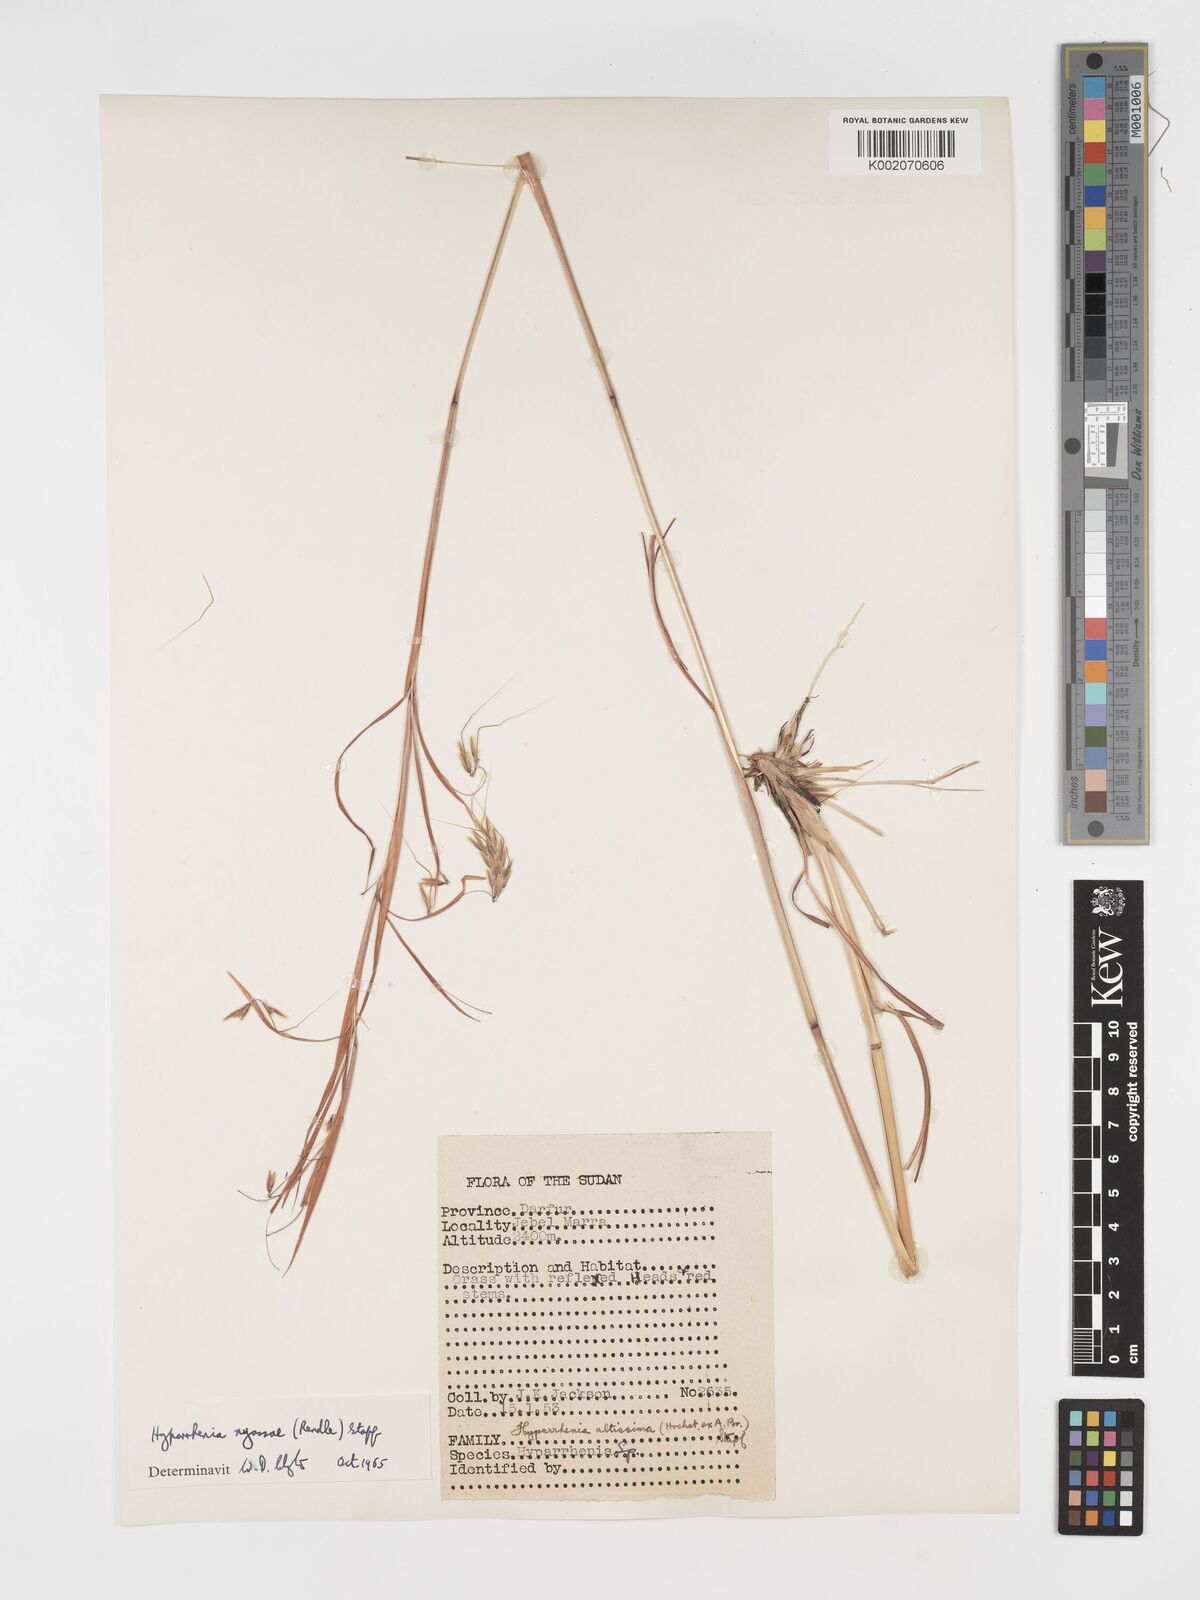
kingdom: Plantae
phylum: Tracheophyta
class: Liliopsida
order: Poales
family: Poaceae
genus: Hyparrhenia
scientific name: Hyparrhenia nyassae
